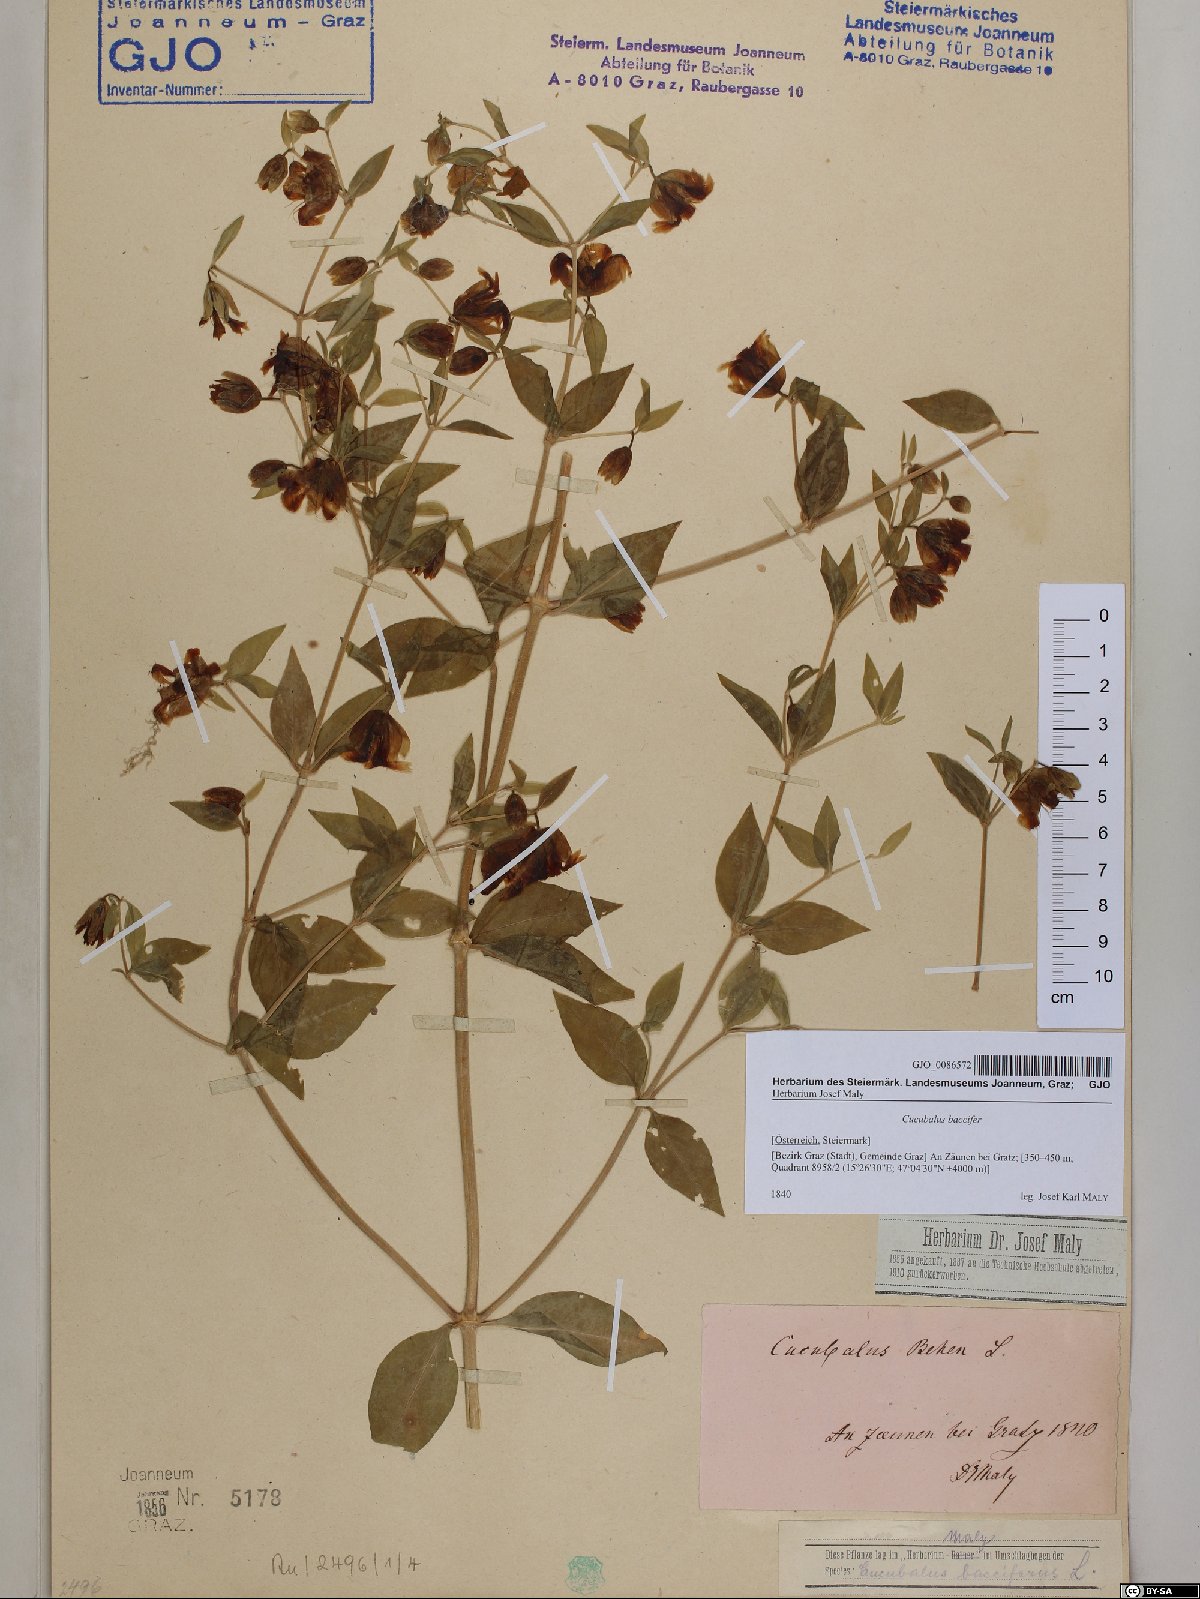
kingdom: Plantae
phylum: Tracheophyta
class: Magnoliopsida
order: Caryophyllales
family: Caryophyllaceae
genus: Silene
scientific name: Silene baccifera
